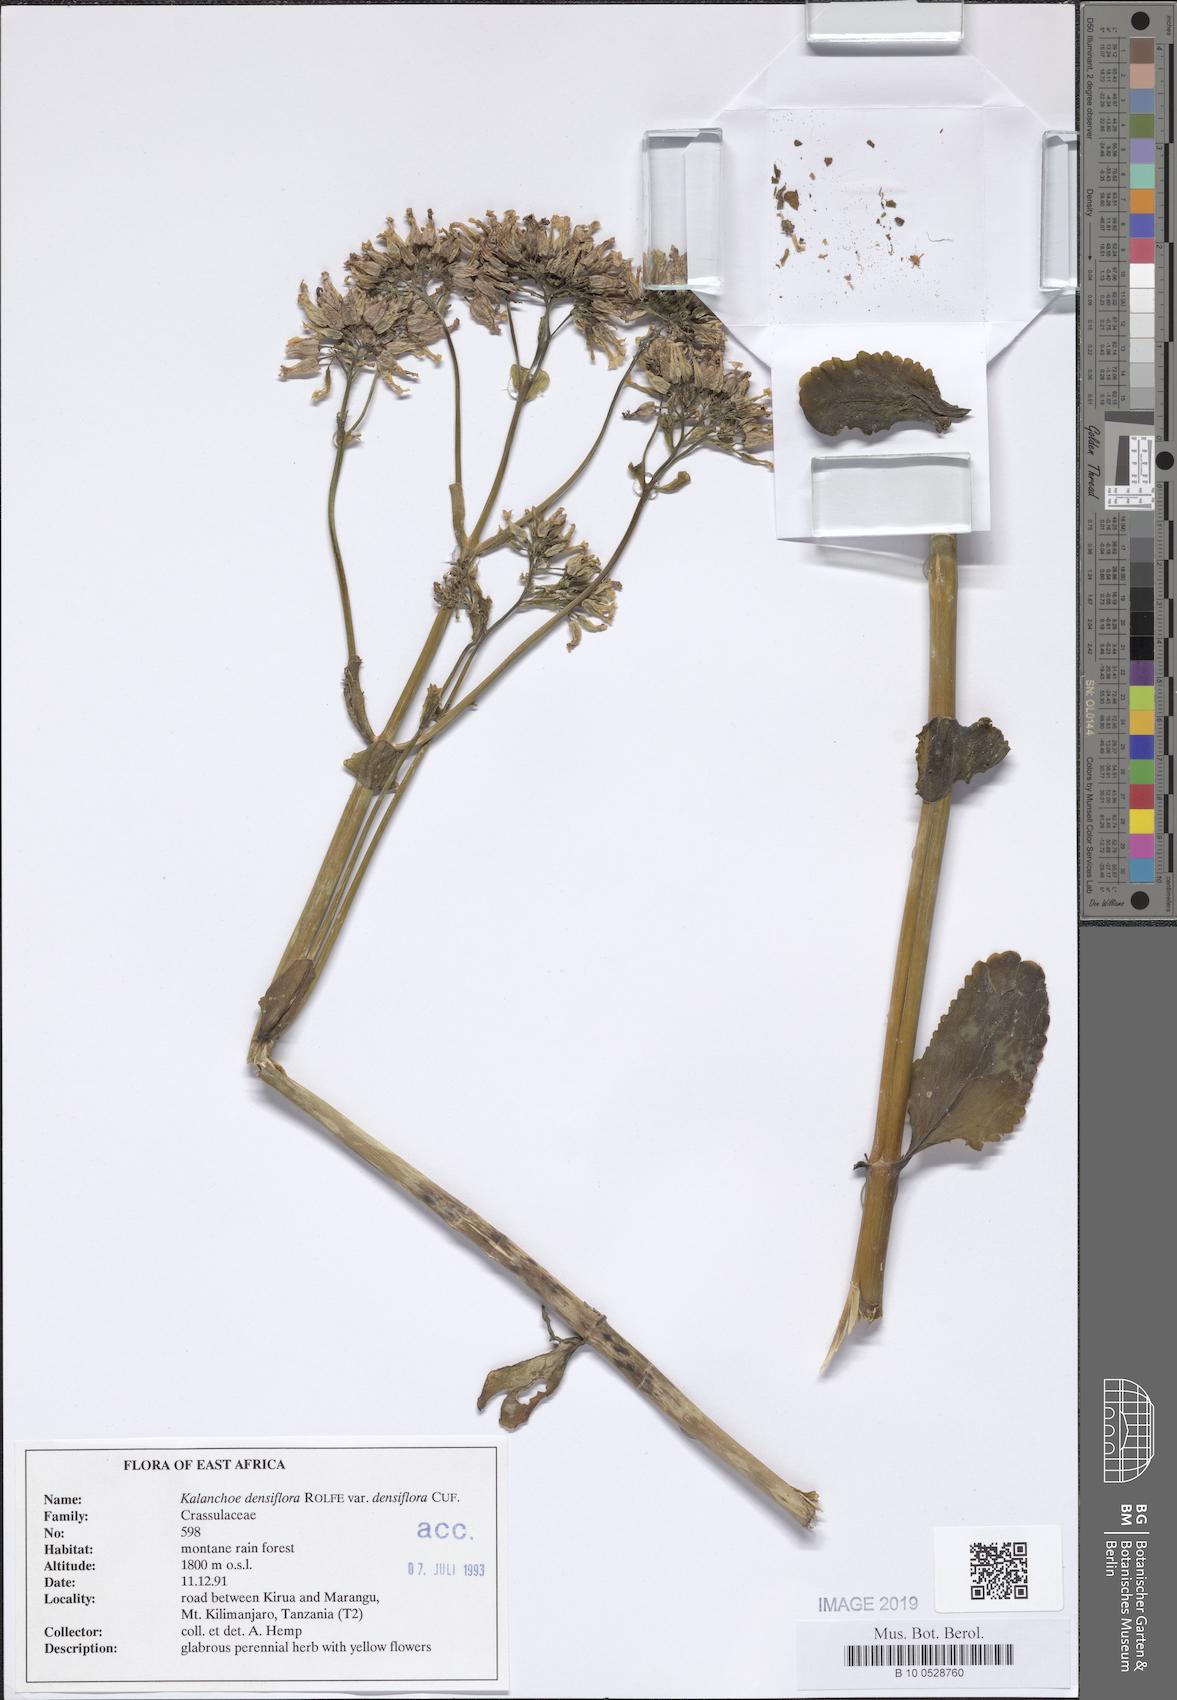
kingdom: Plantae
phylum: Tracheophyta
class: Magnoliopsida
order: Saxifragales
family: Crassulaceae
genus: Kalanchoe
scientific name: Kalanchoe densiflora
